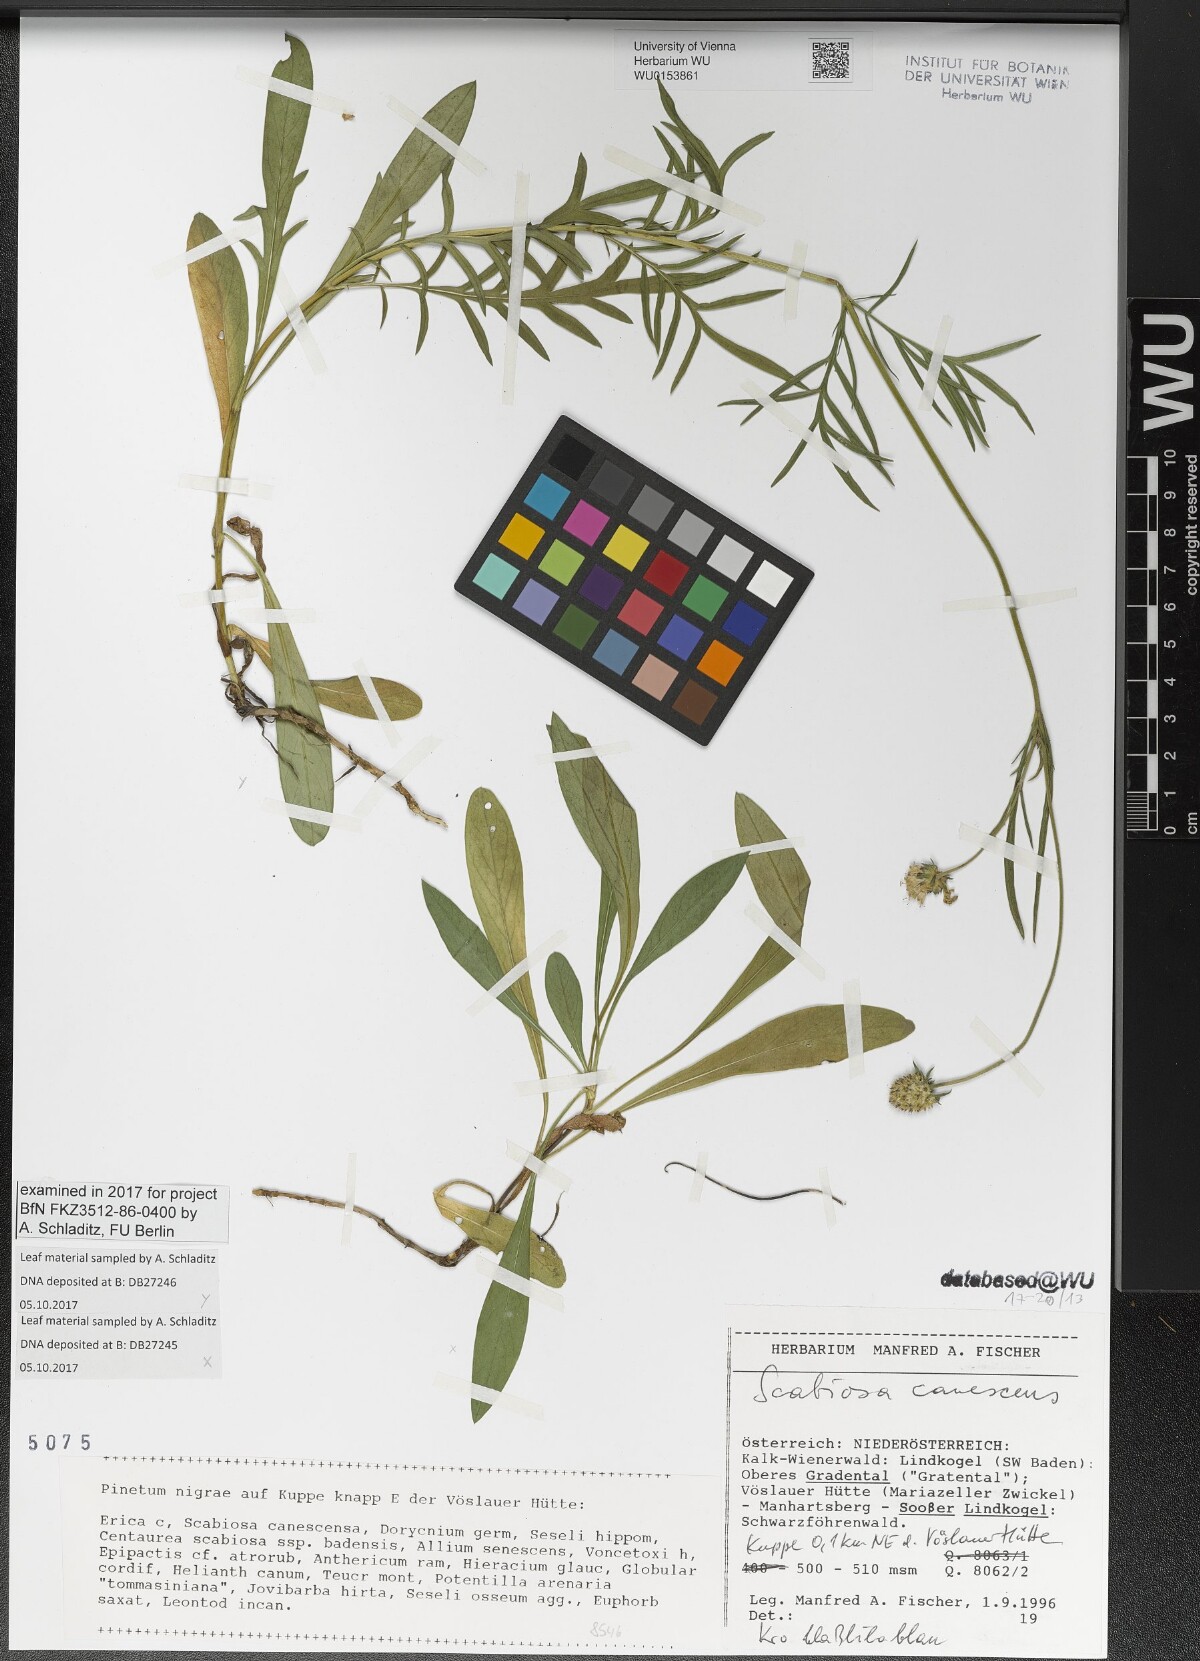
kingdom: Plantae
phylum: Tracheophyta
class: Magnoliopsida
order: Dipsacales
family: Caprifoliaceae
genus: Scabiosa
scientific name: Scabiosa canescens
